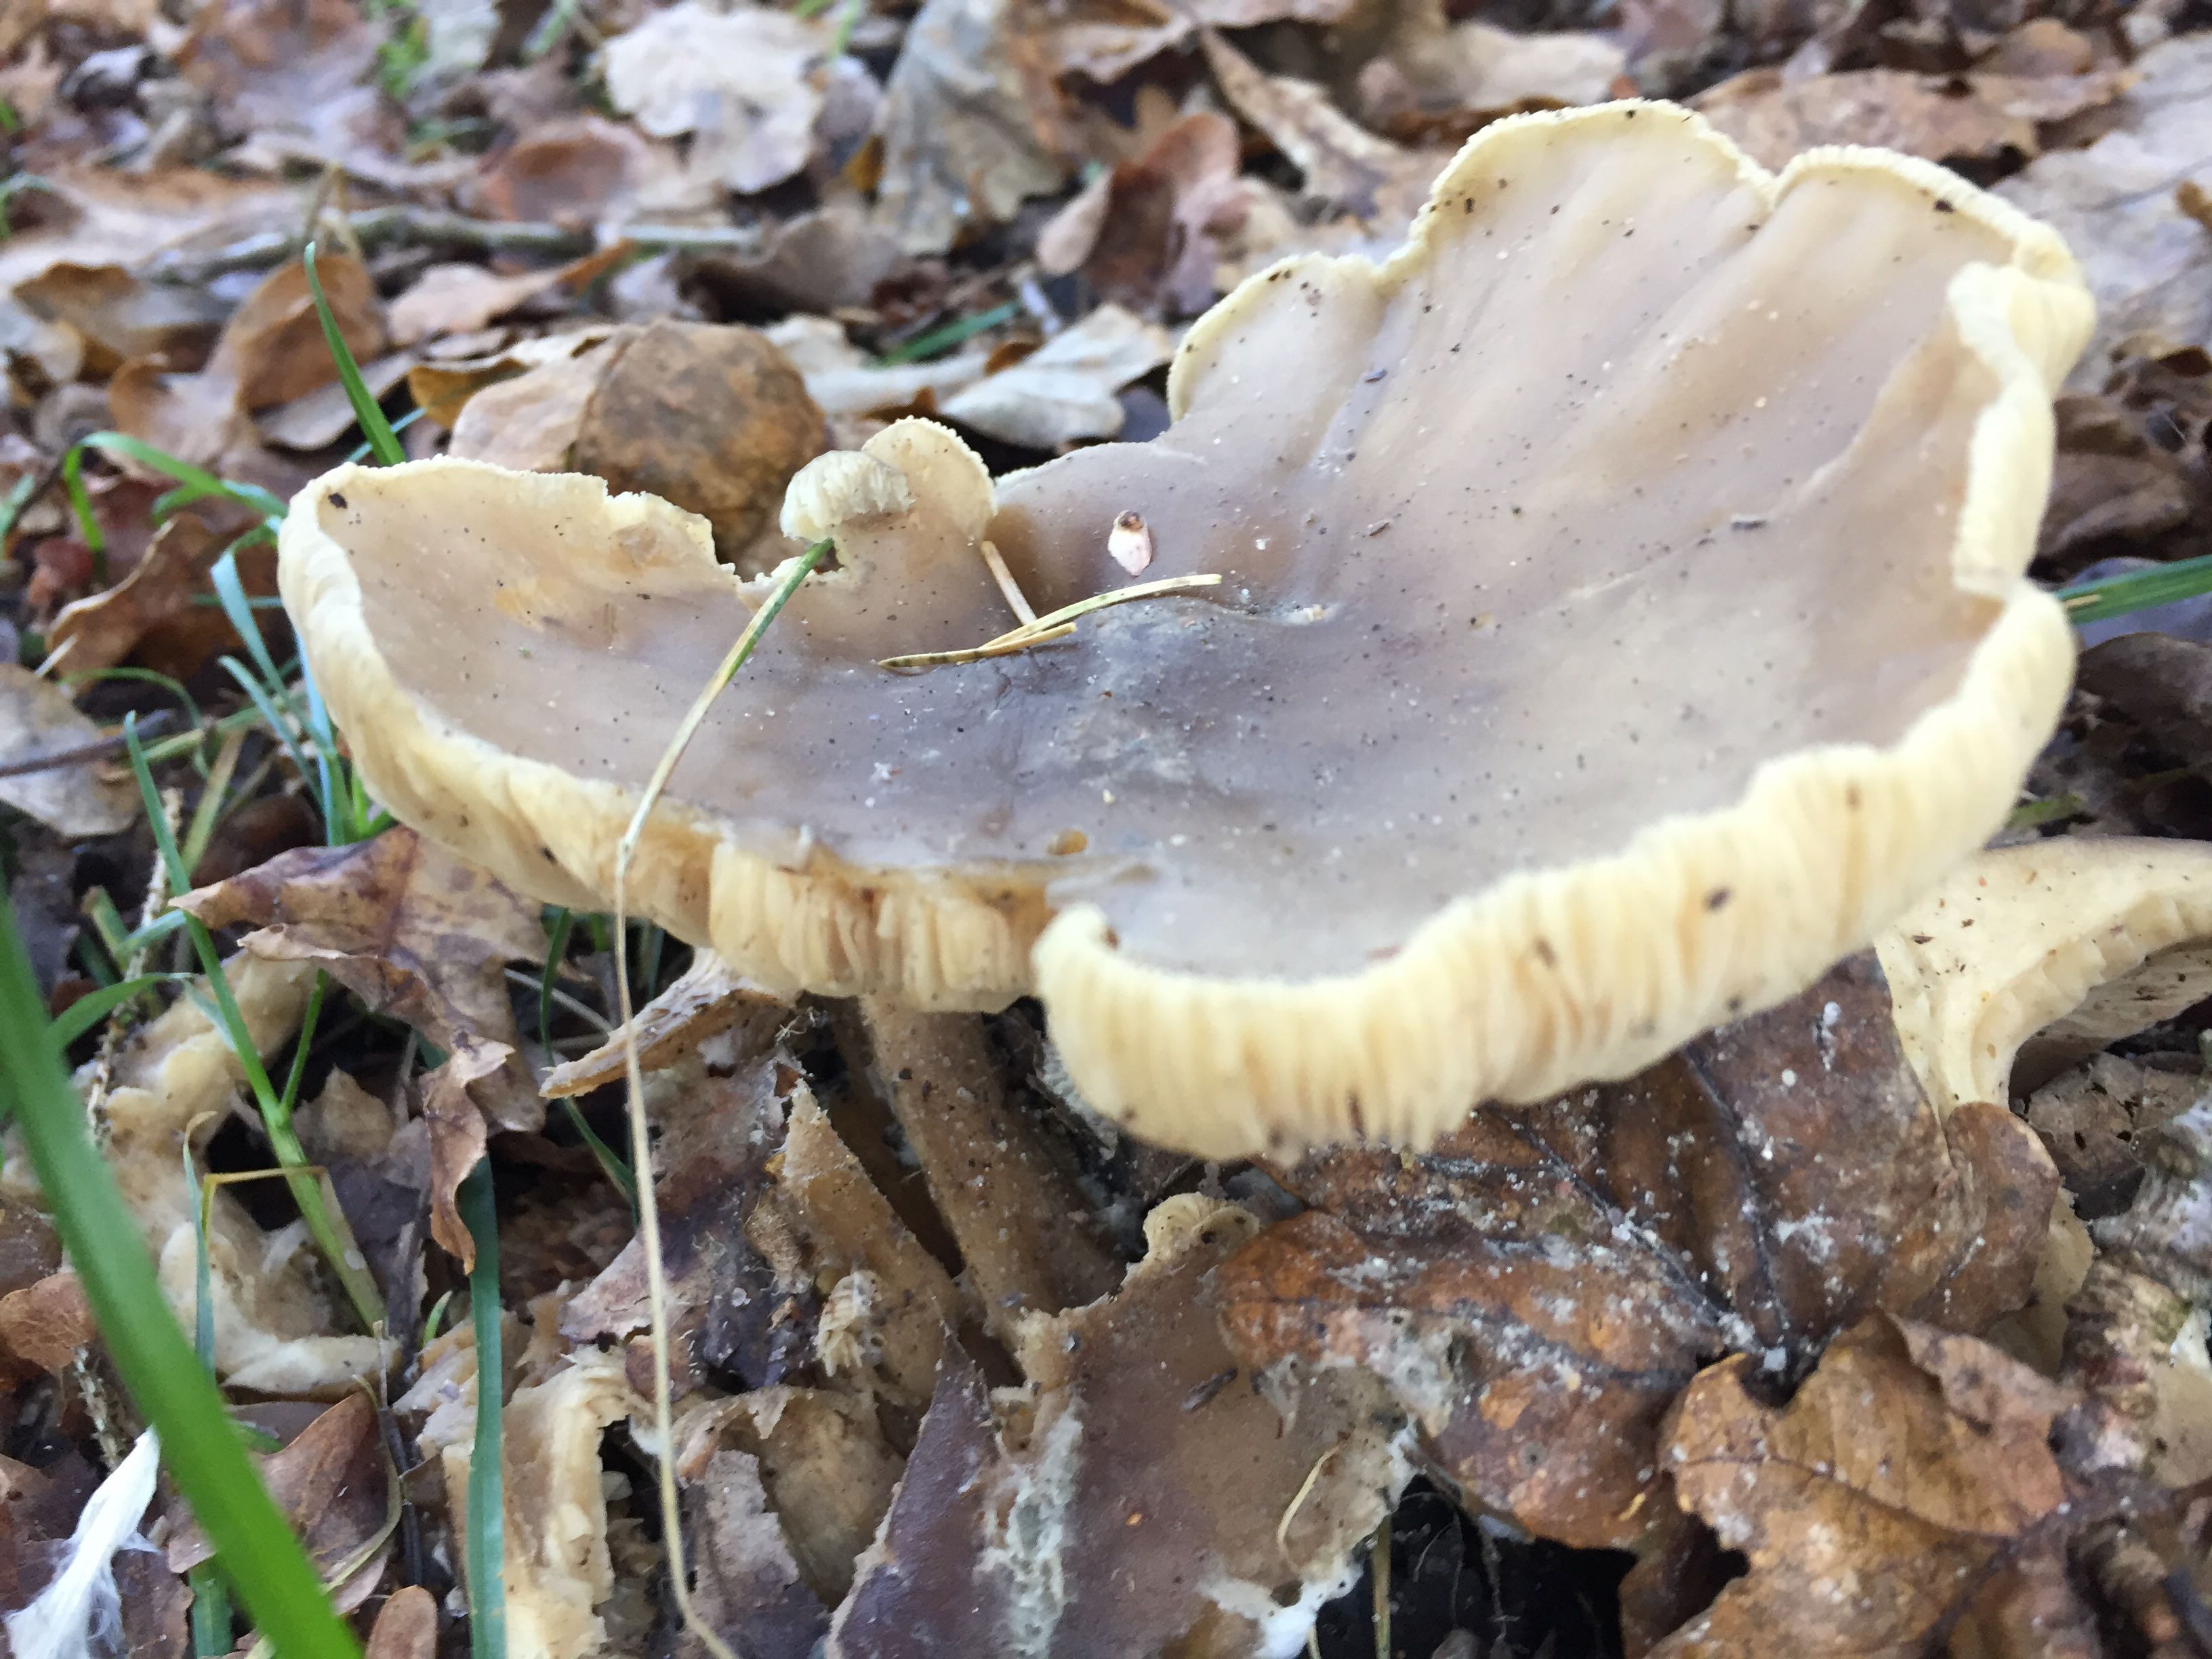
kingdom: Fungi
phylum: Basidiomycota
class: Agaricomycetes
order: Agaricales
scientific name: Agaricales
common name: champignonordenen
